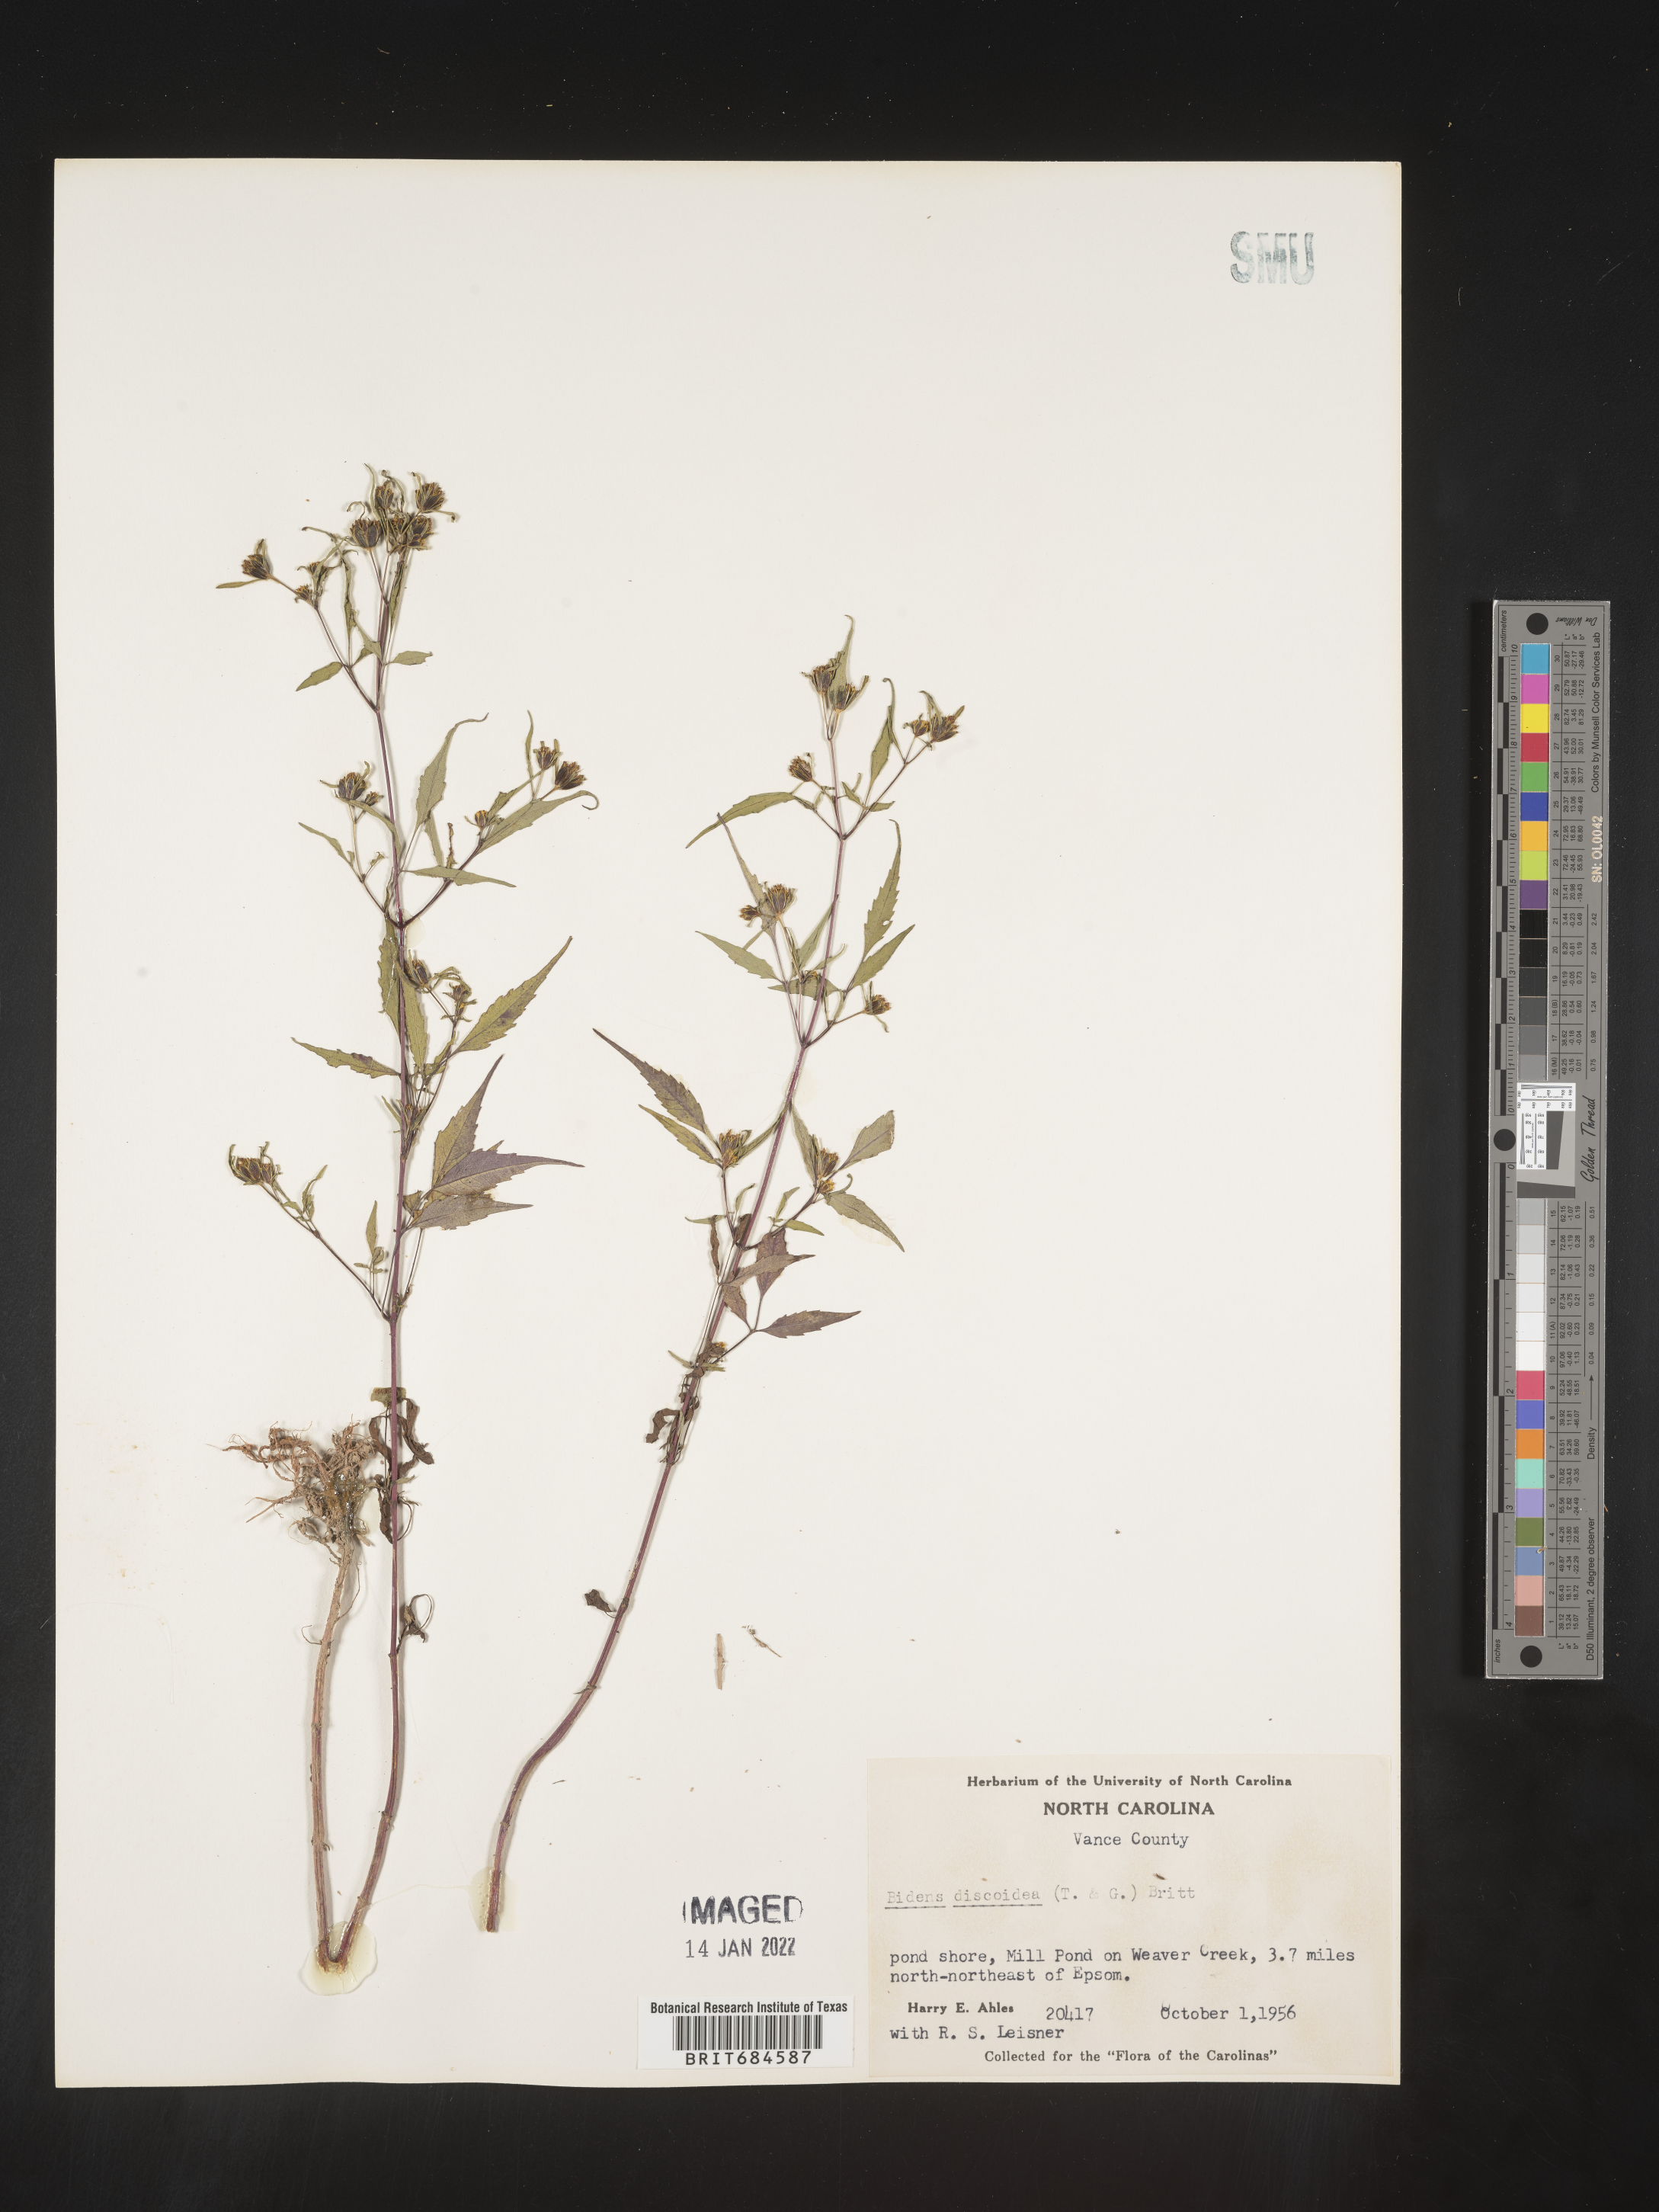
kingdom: Plantae
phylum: Tracheophyta
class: Magnoliopsida
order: Asterales
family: Asteraceae
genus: Bidens
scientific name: Bidens discoidea
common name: Discoide beggarticks
